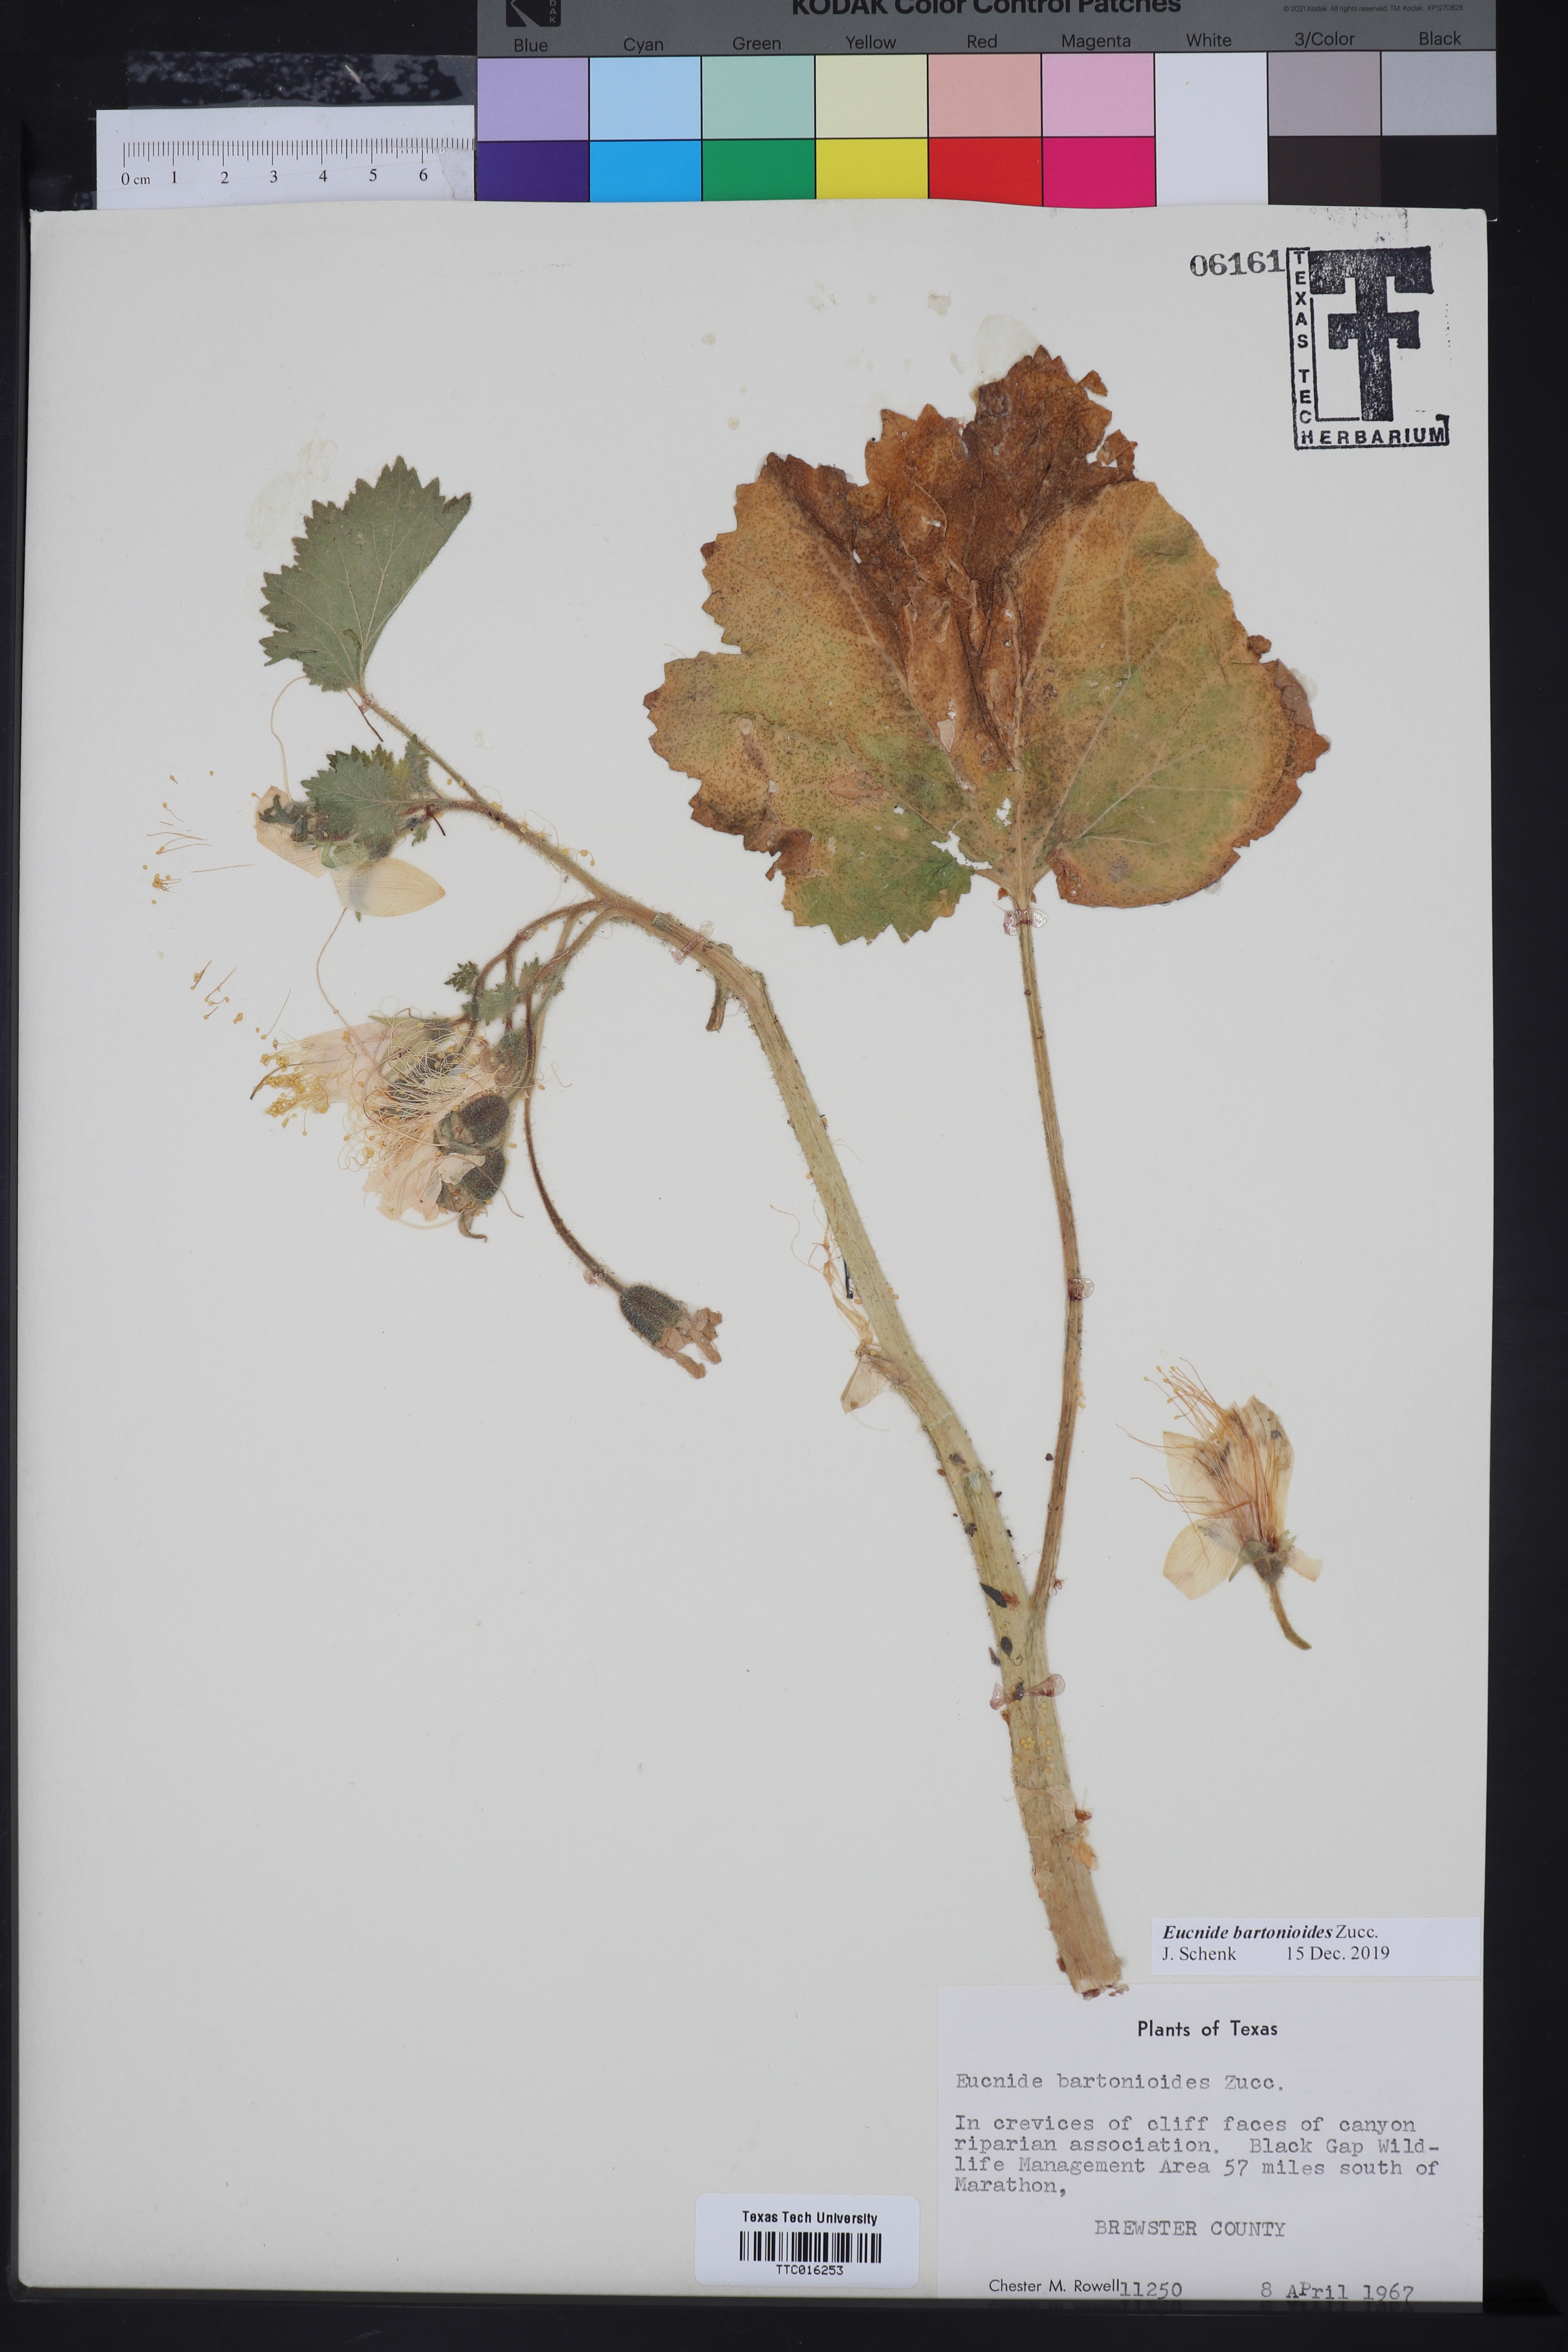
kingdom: Plantae
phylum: Tracheophyta
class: Magnoliopsida
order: Cornales
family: Loasaceae
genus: Eucnide
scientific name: Eucnide bartonioides
